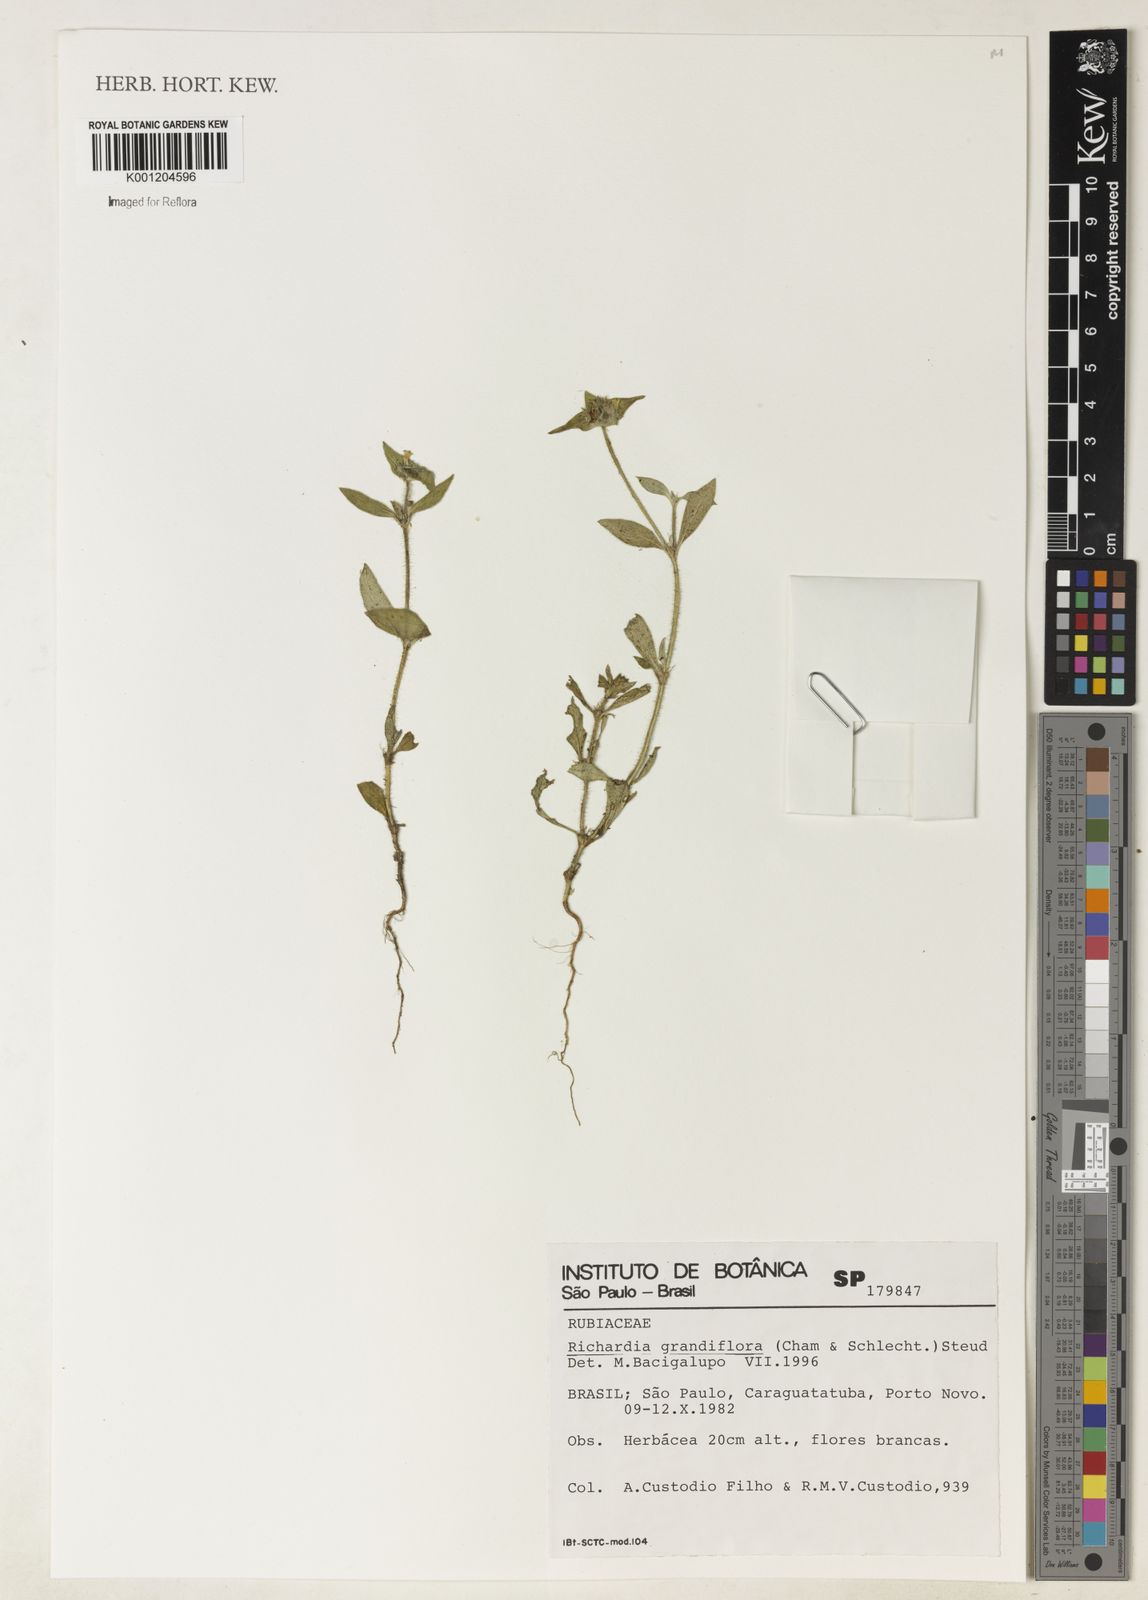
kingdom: Plantae
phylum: Tracheophyta
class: Magnoliopsida
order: Gentianales
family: Rubiaceae
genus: Richardia
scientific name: Richardia grandiflora
